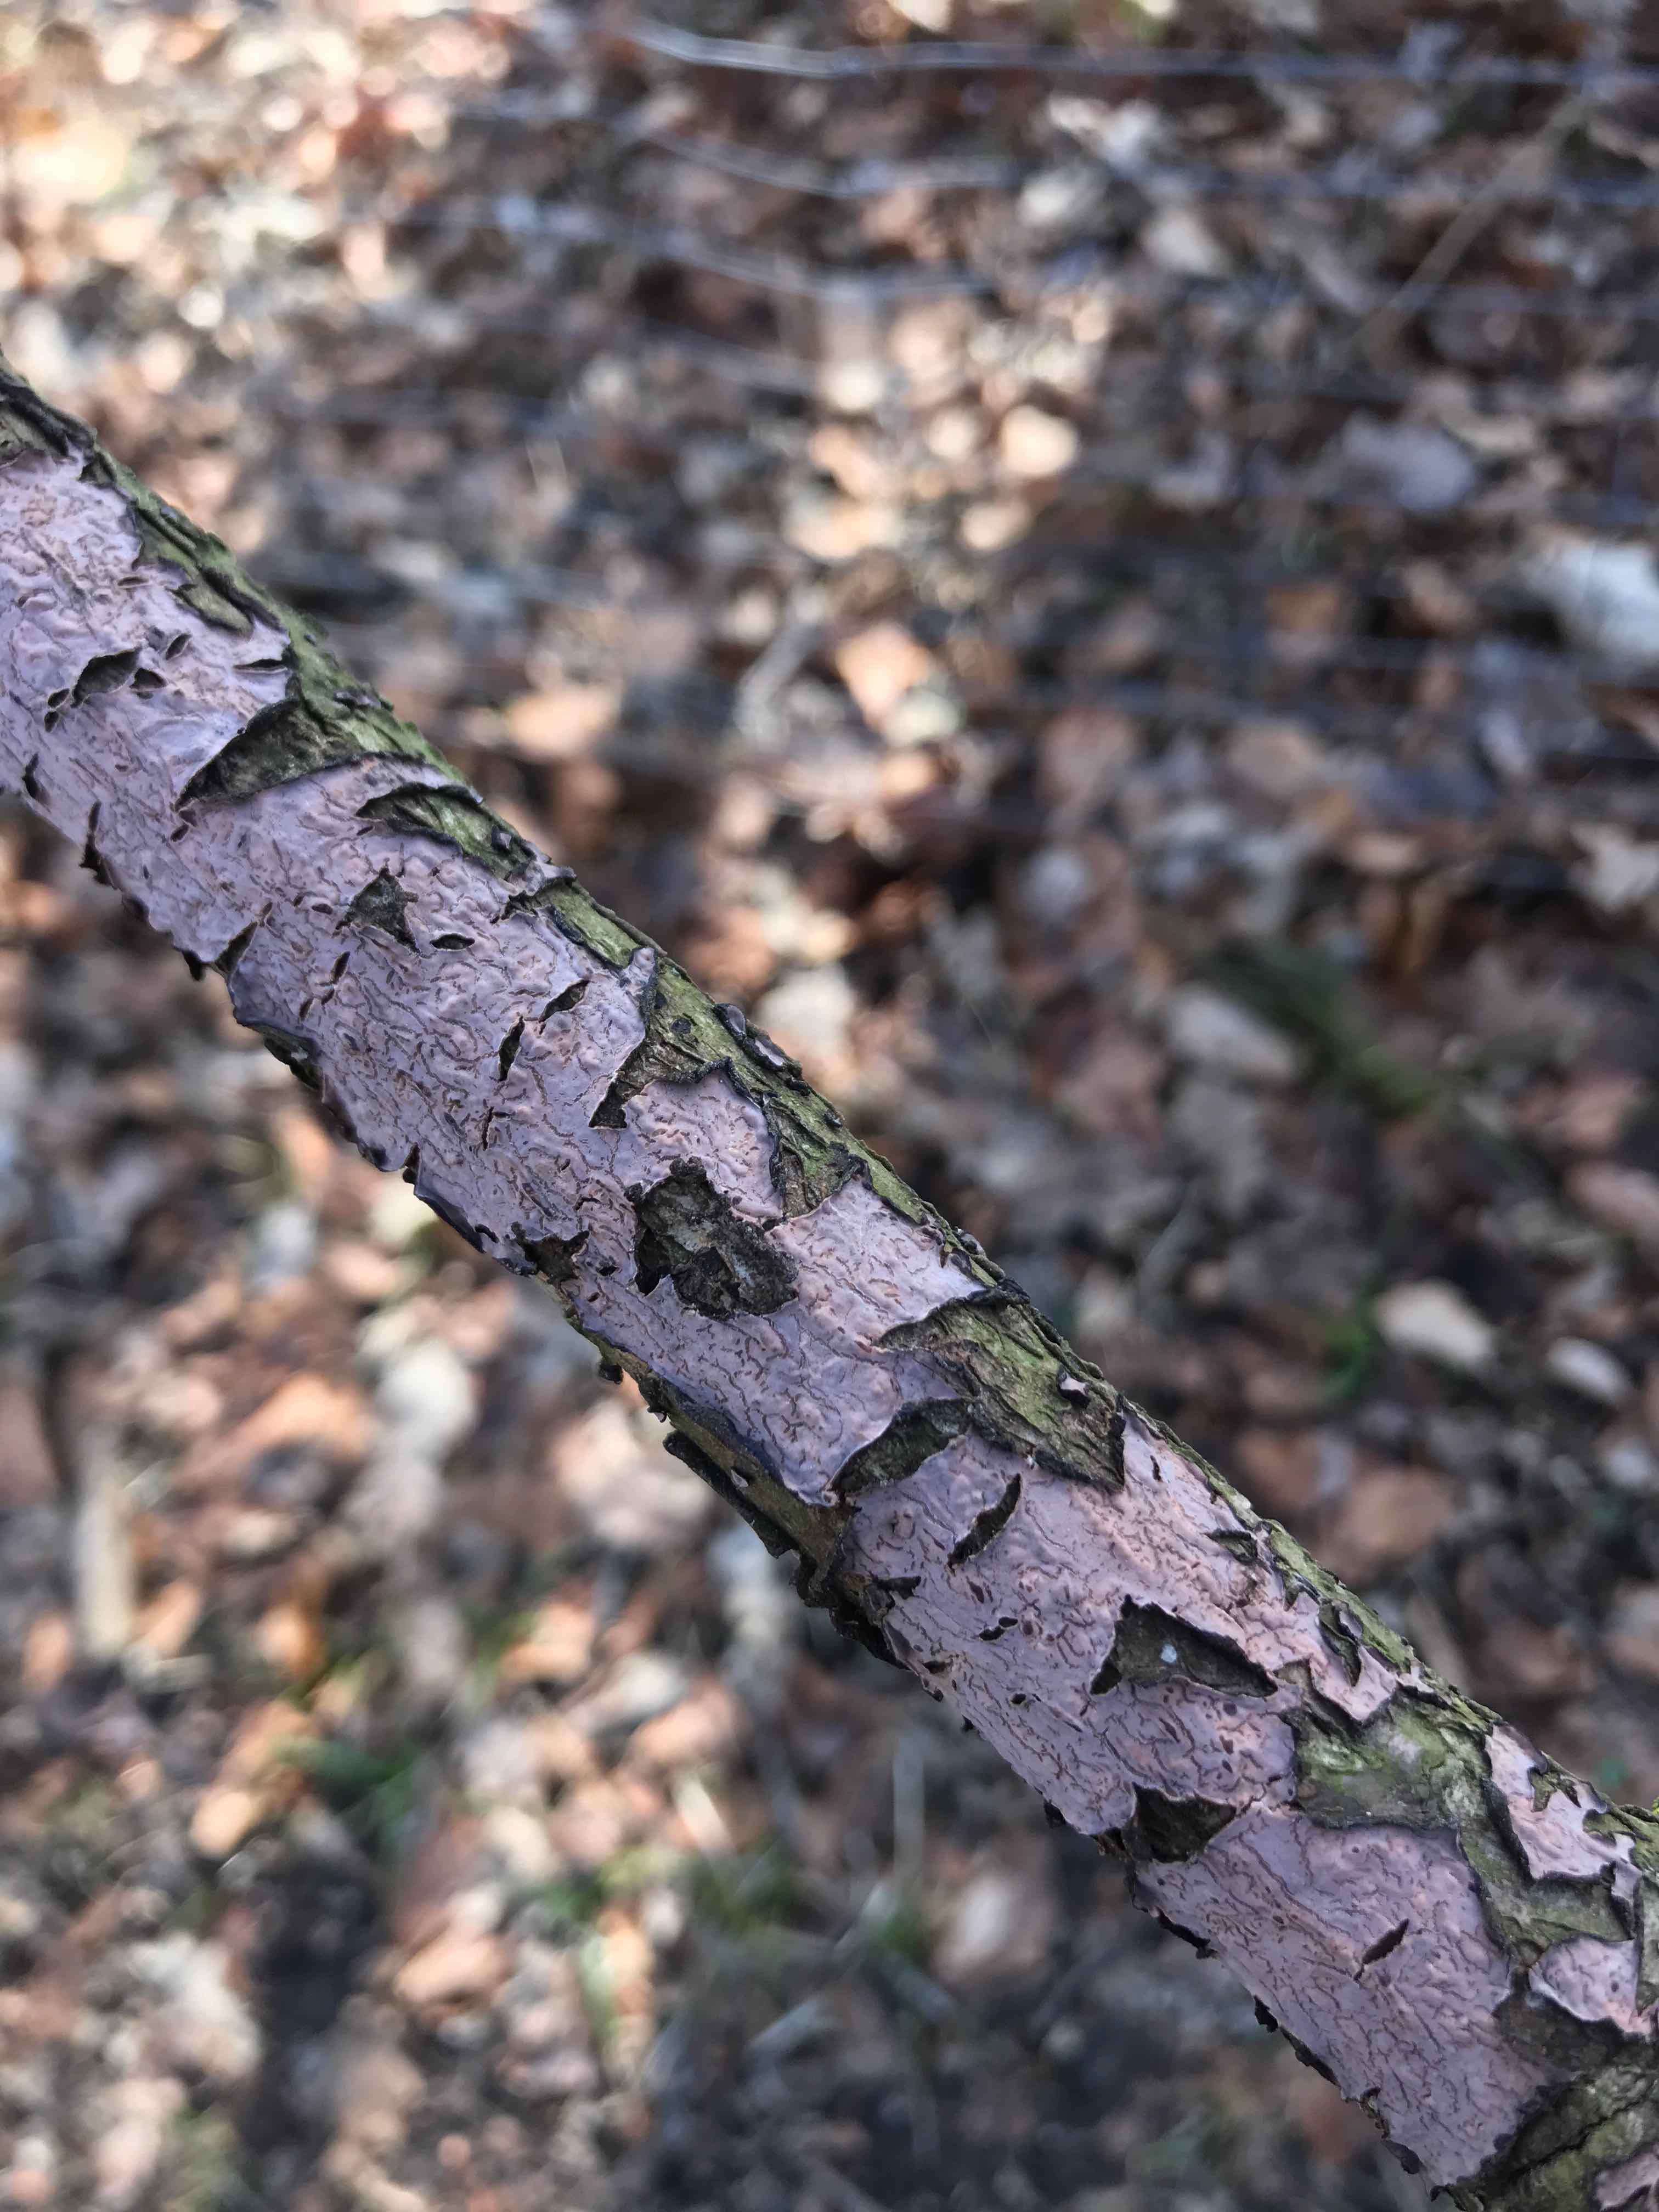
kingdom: Fungi
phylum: Basidiomycota
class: Agaricomycetes
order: Russulales
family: Peniophoraceae
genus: Peniophora
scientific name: Peniophora quercina
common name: ege-voksskind
